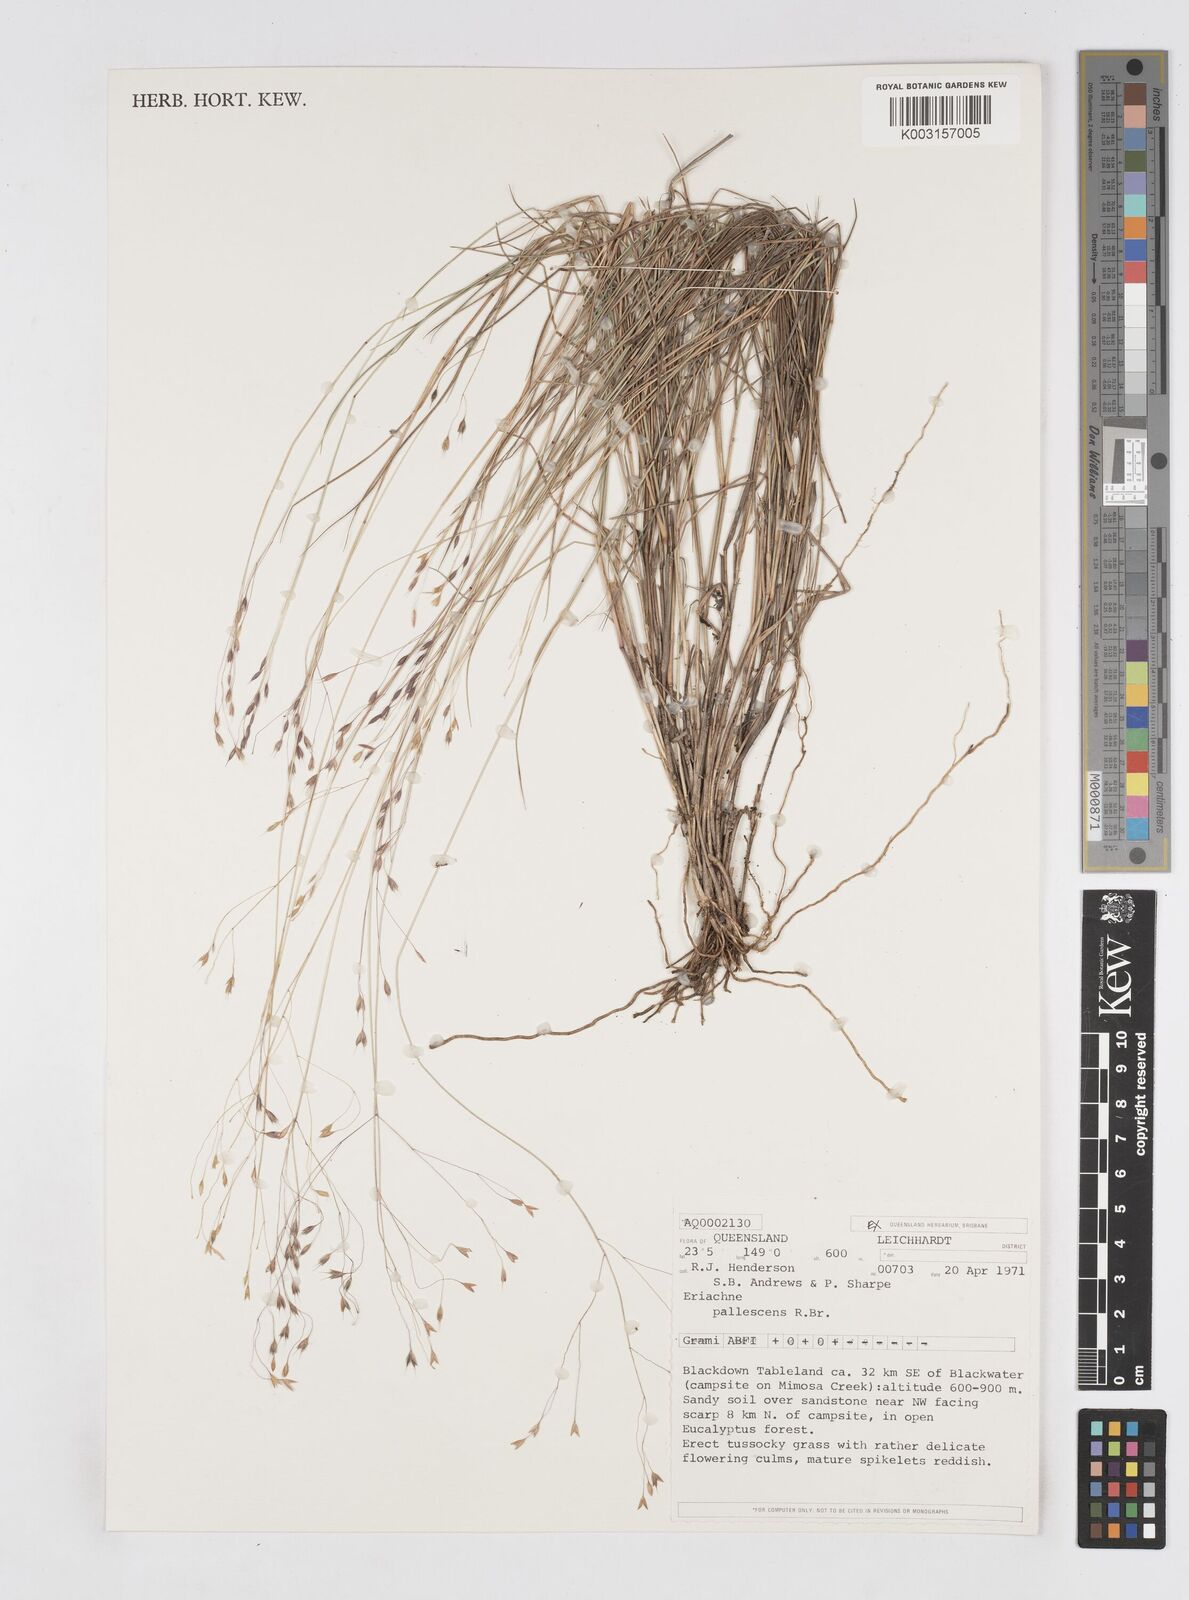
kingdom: Plantae
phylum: Tracheophyta
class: Liliopsida
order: Poales
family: Poaceae
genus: Eriachne
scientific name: Eriachne pallescens
